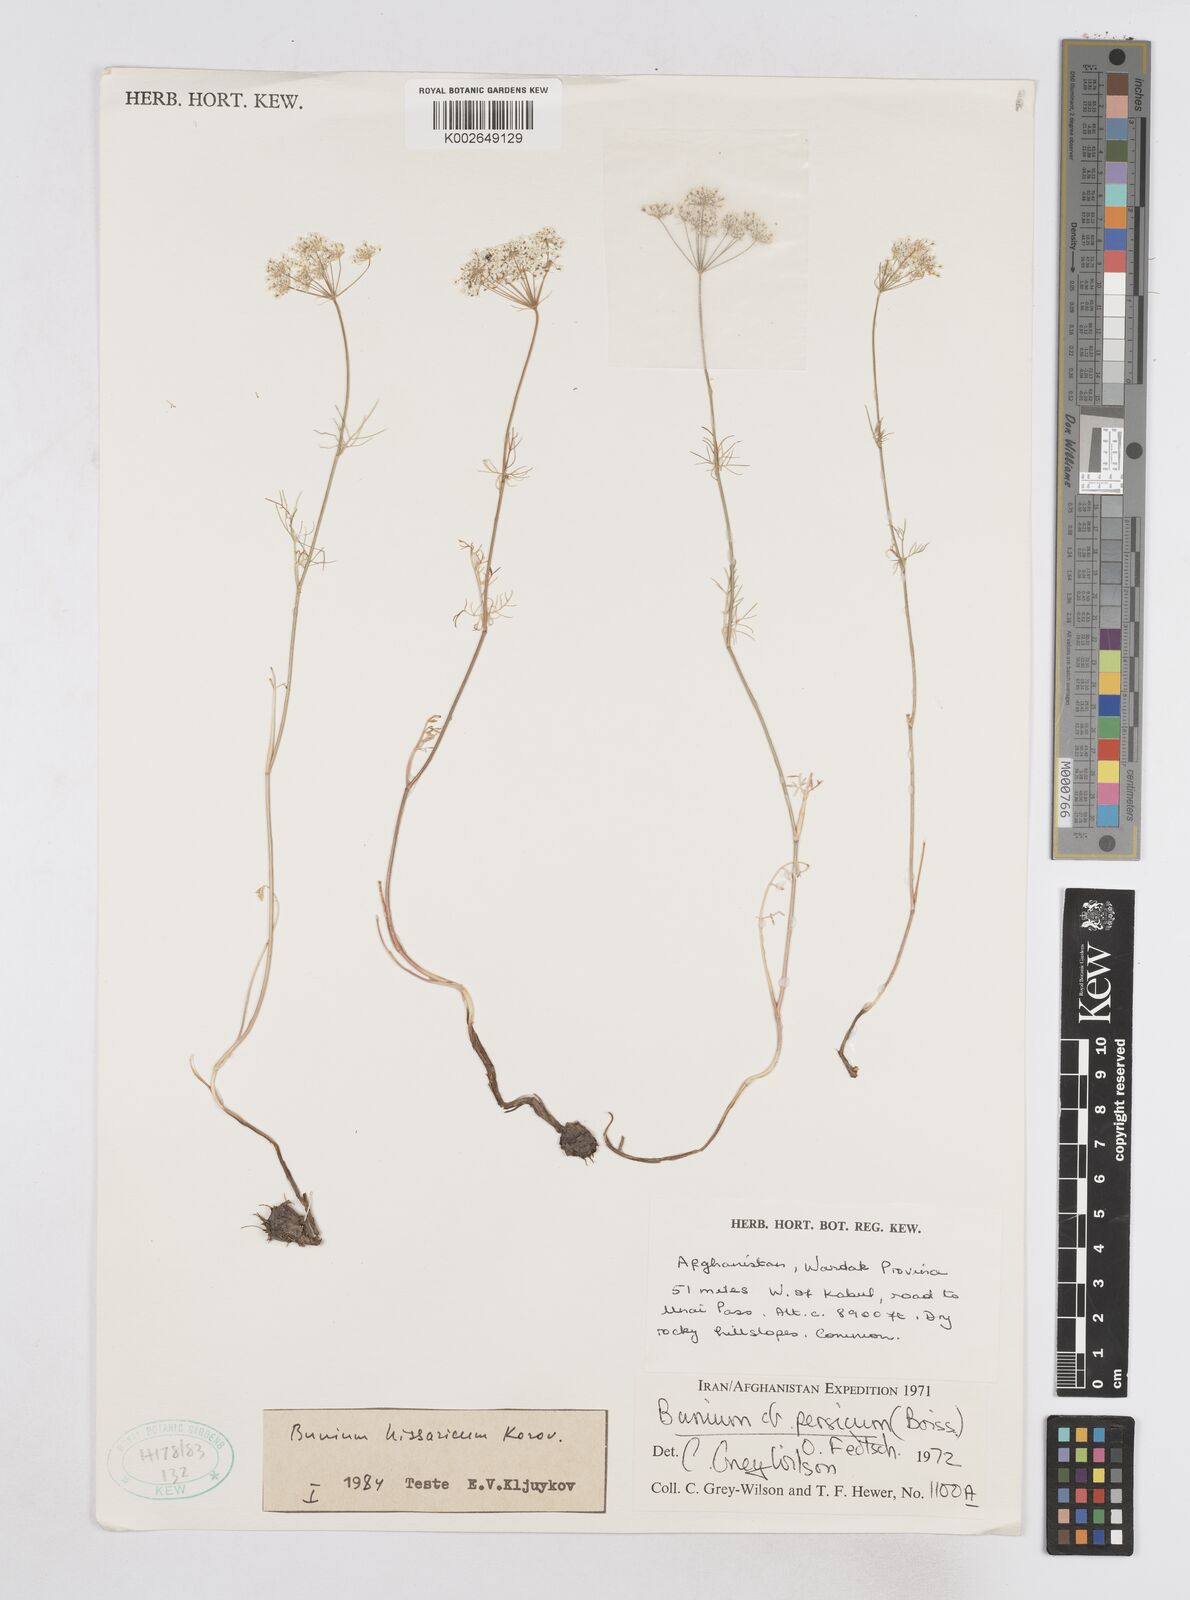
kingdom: Plantae
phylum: Tracheophyta
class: Magnoliopsida
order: Apiales
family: Apiaceae
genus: Elwendia
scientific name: Elwendia hissarica
